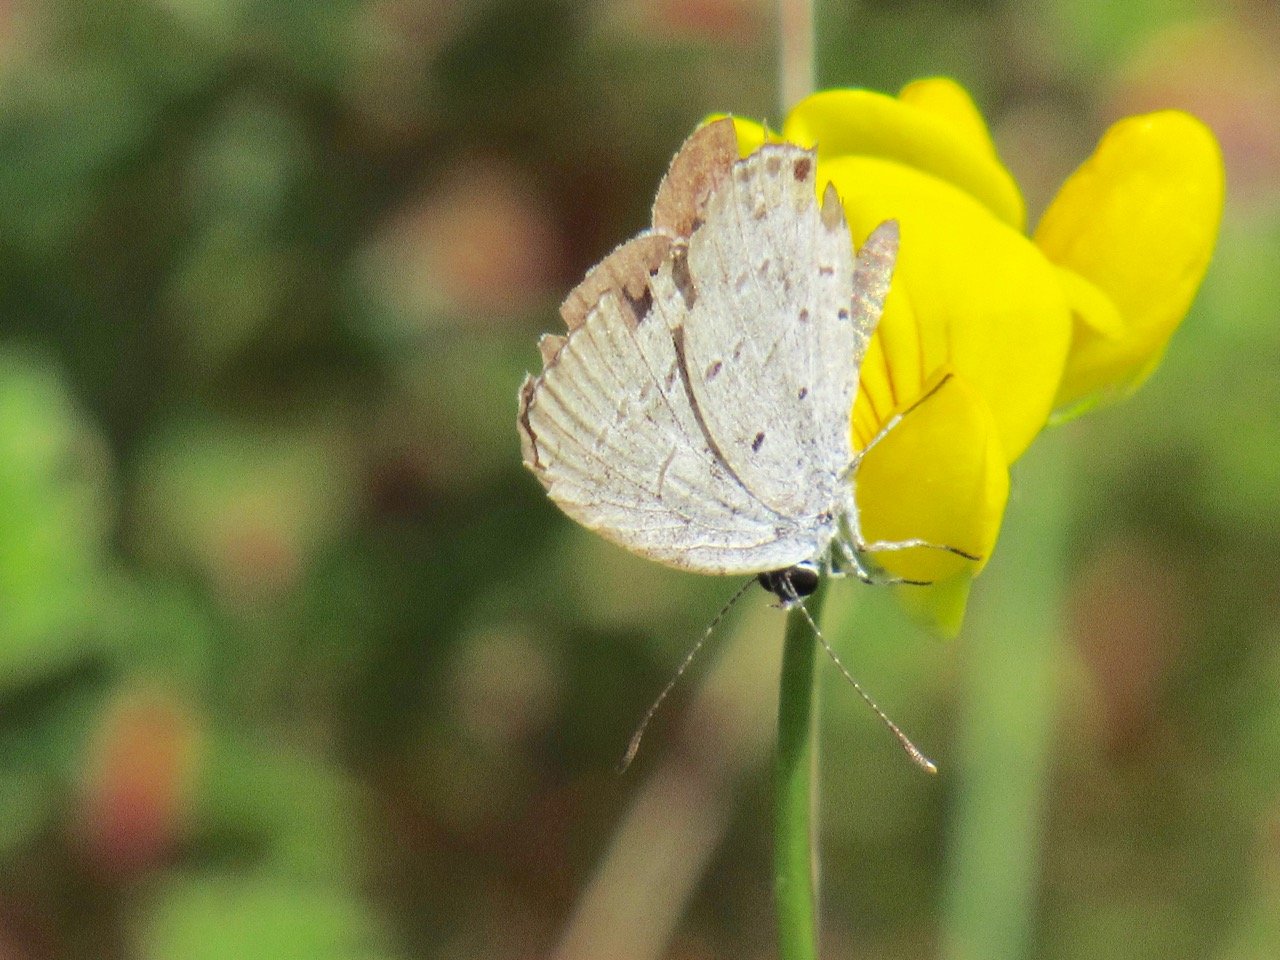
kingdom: Animalia
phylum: Arthropoda
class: Insecta
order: Lepidoptera
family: Lycaenidae
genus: Elkalyce
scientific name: Elkalyce comyntas
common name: Eastern Tailed-Blue
